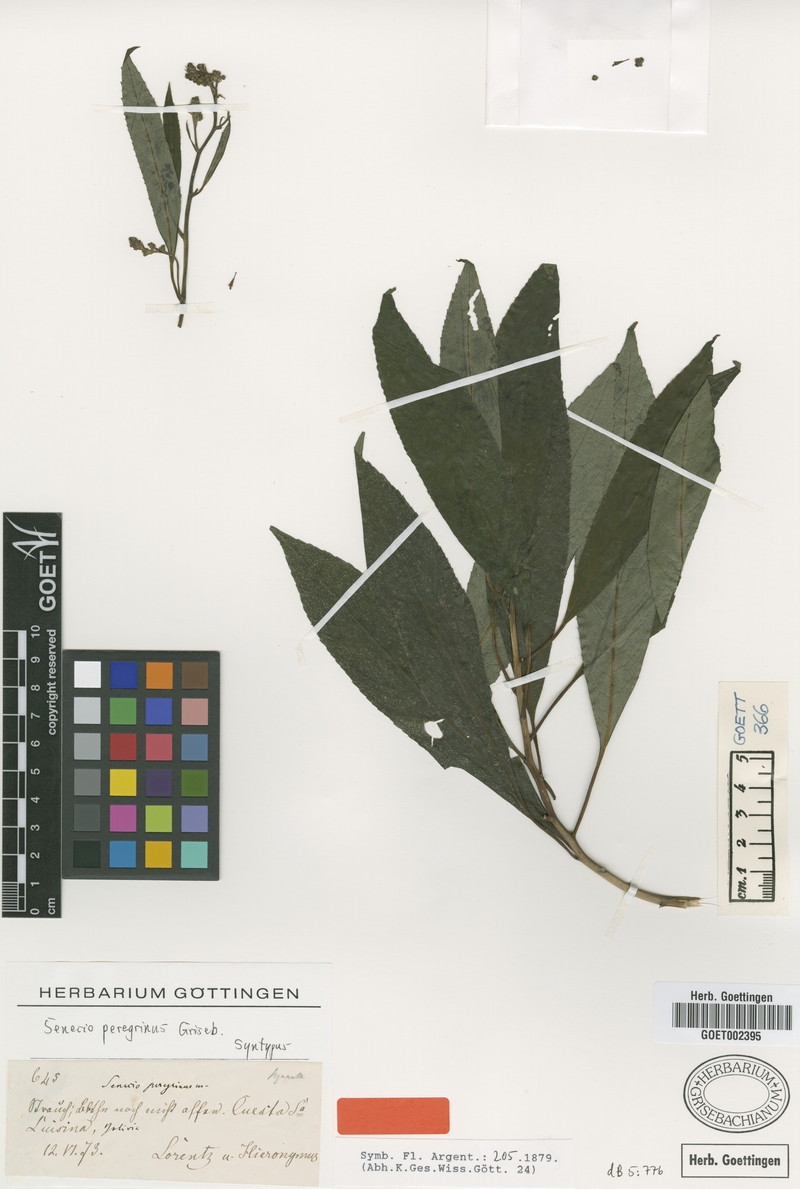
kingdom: Plantae
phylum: Tracheophyta
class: Magnoliopsida
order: Asterales
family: Asteraceae
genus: Dendrophorbium
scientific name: Dendrophorbium peregrinum
